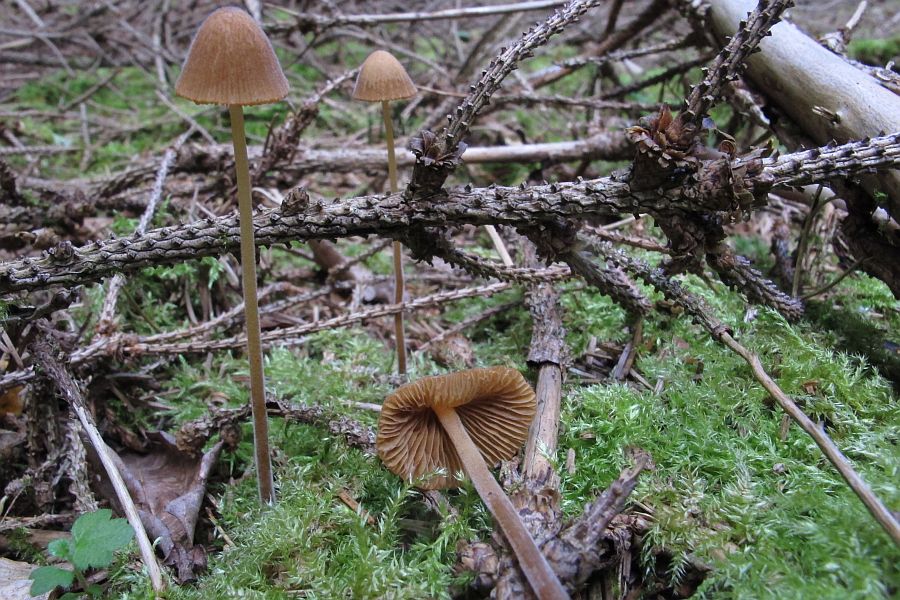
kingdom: Fungi
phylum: Basidiomycota
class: Agaricomycetes
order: Agaricales
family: Bolbitiaceae
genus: Conocybe
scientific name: Conocybe subpubescens
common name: krat-keglehat
